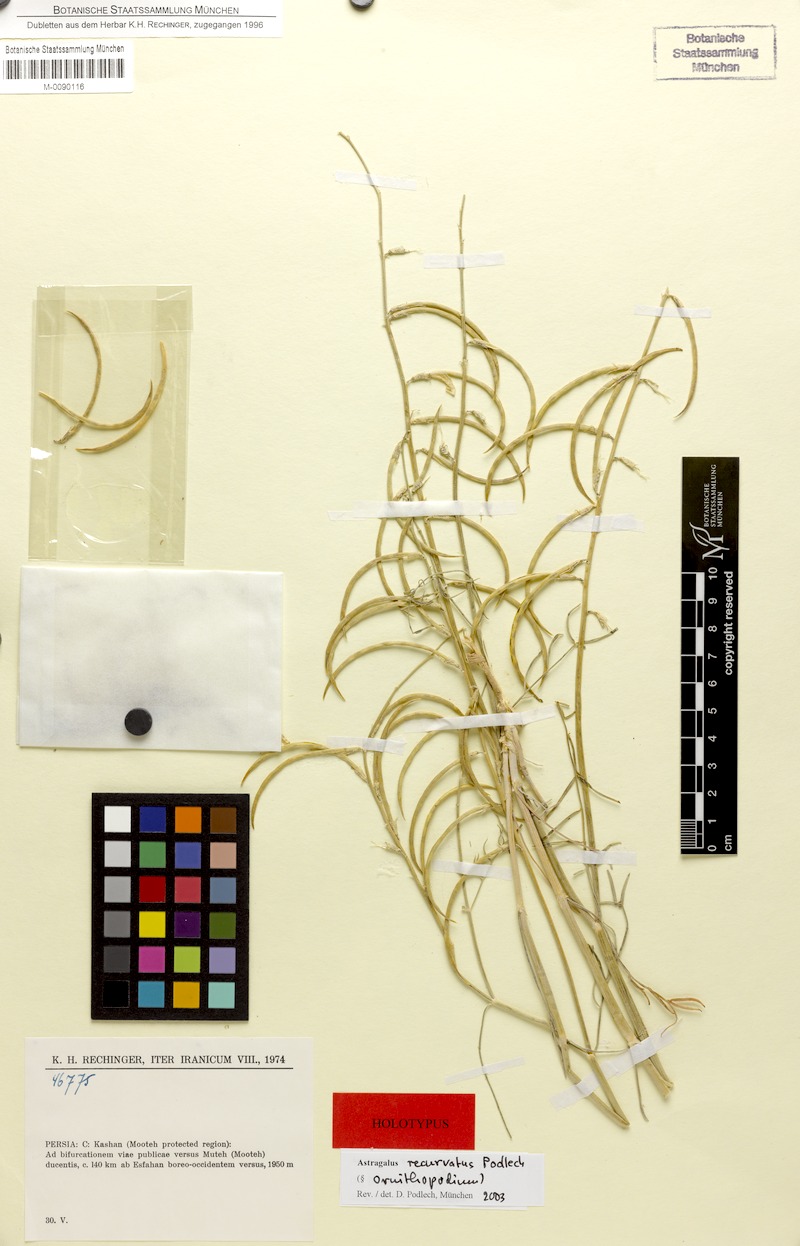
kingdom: Plantae
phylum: Tracheophyta
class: Magnoliopsida
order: Fabales
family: Fabaceae
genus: Astragalus
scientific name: Astragalus recurvatus
